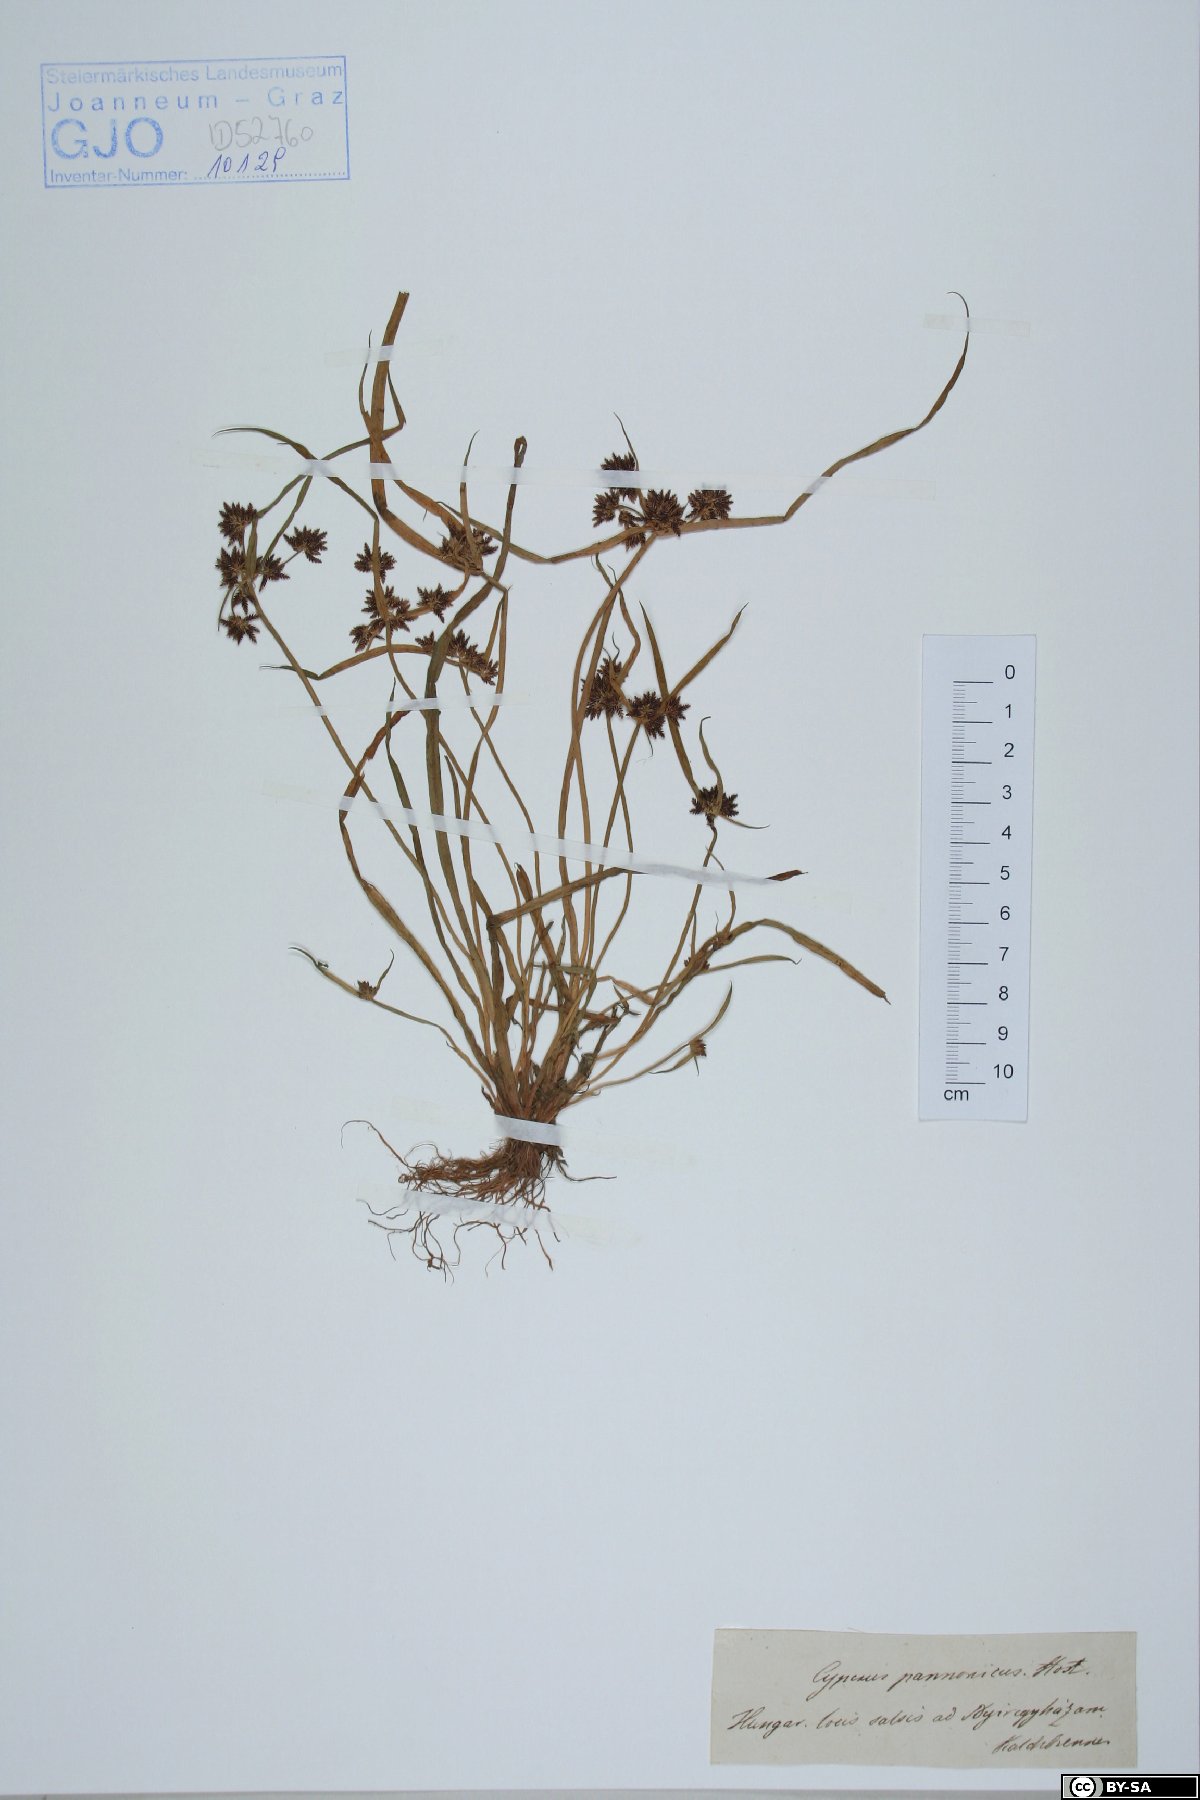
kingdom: Plantae
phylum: Tracheophyta
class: Liliopsida
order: Poales
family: Cyperaceae
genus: Cyperus
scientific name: Cyperus pannonicus
